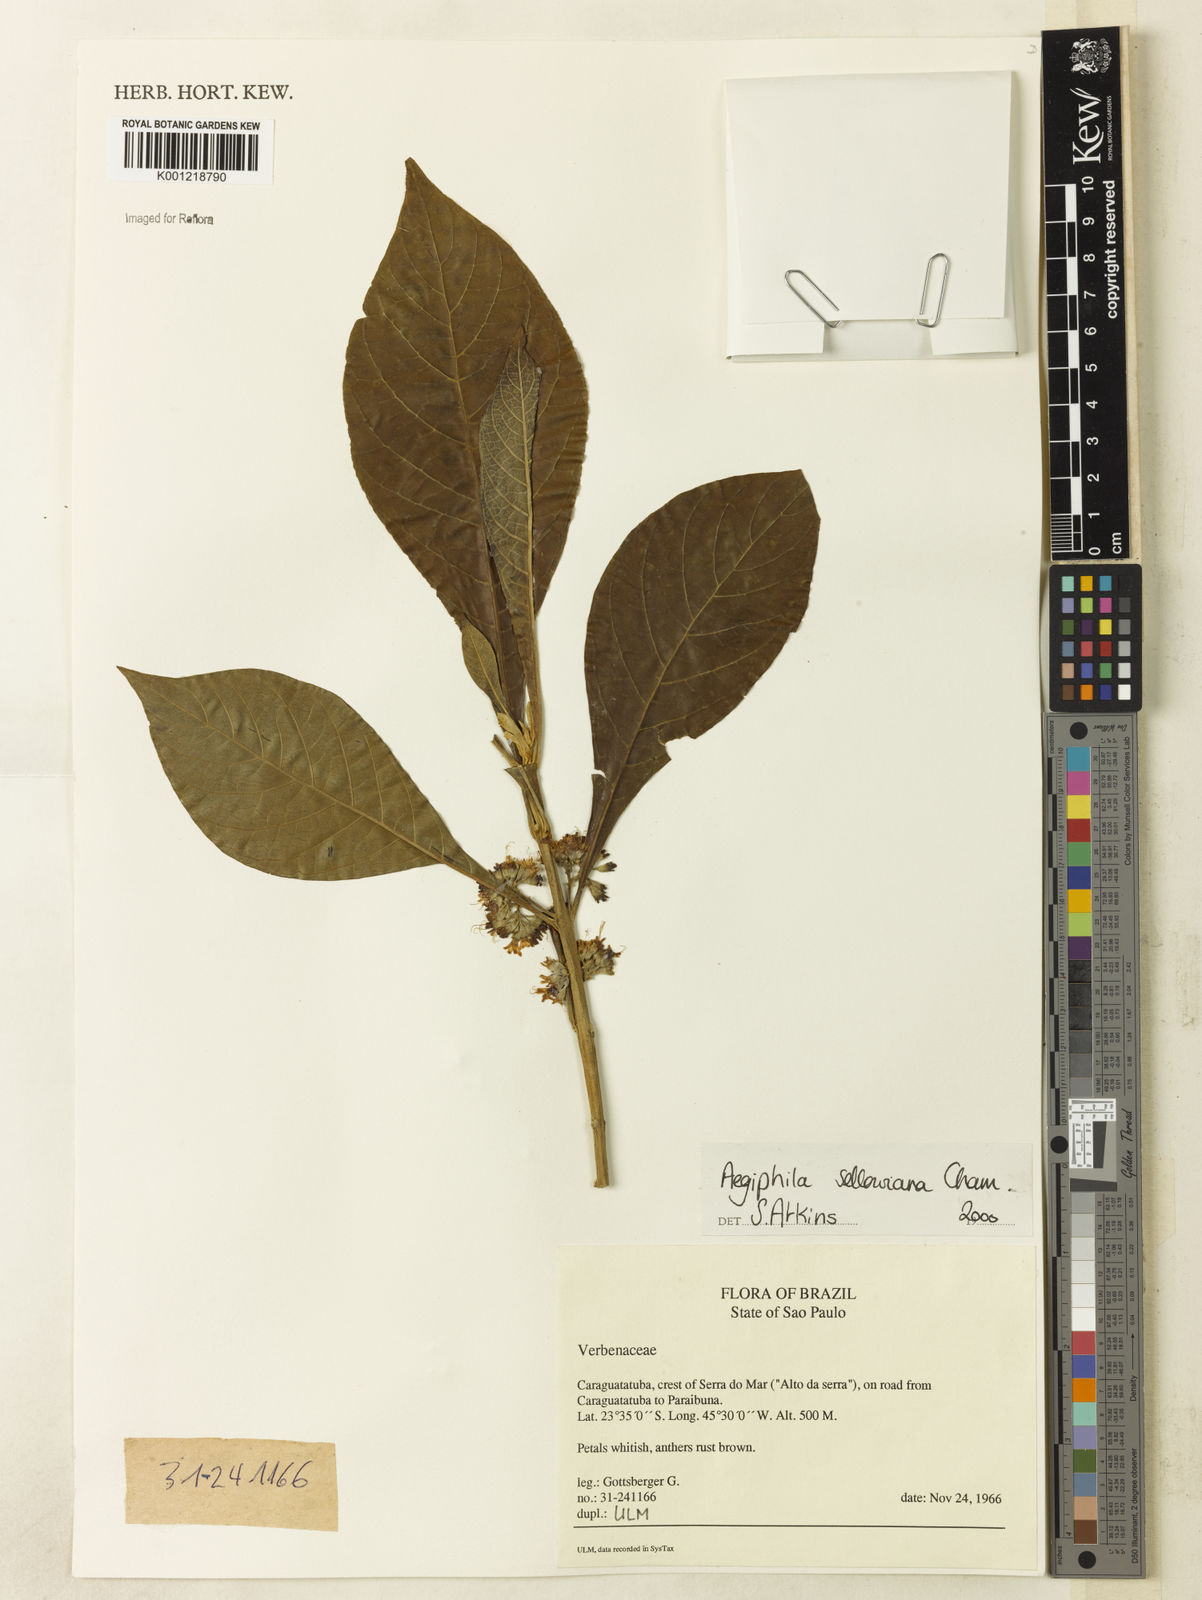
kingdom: Plantae
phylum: Tracheophyta
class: Magnoliopsida
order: Lamiales
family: Lamiaceae
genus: Aegiphila
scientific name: Aegiphila verticillata
